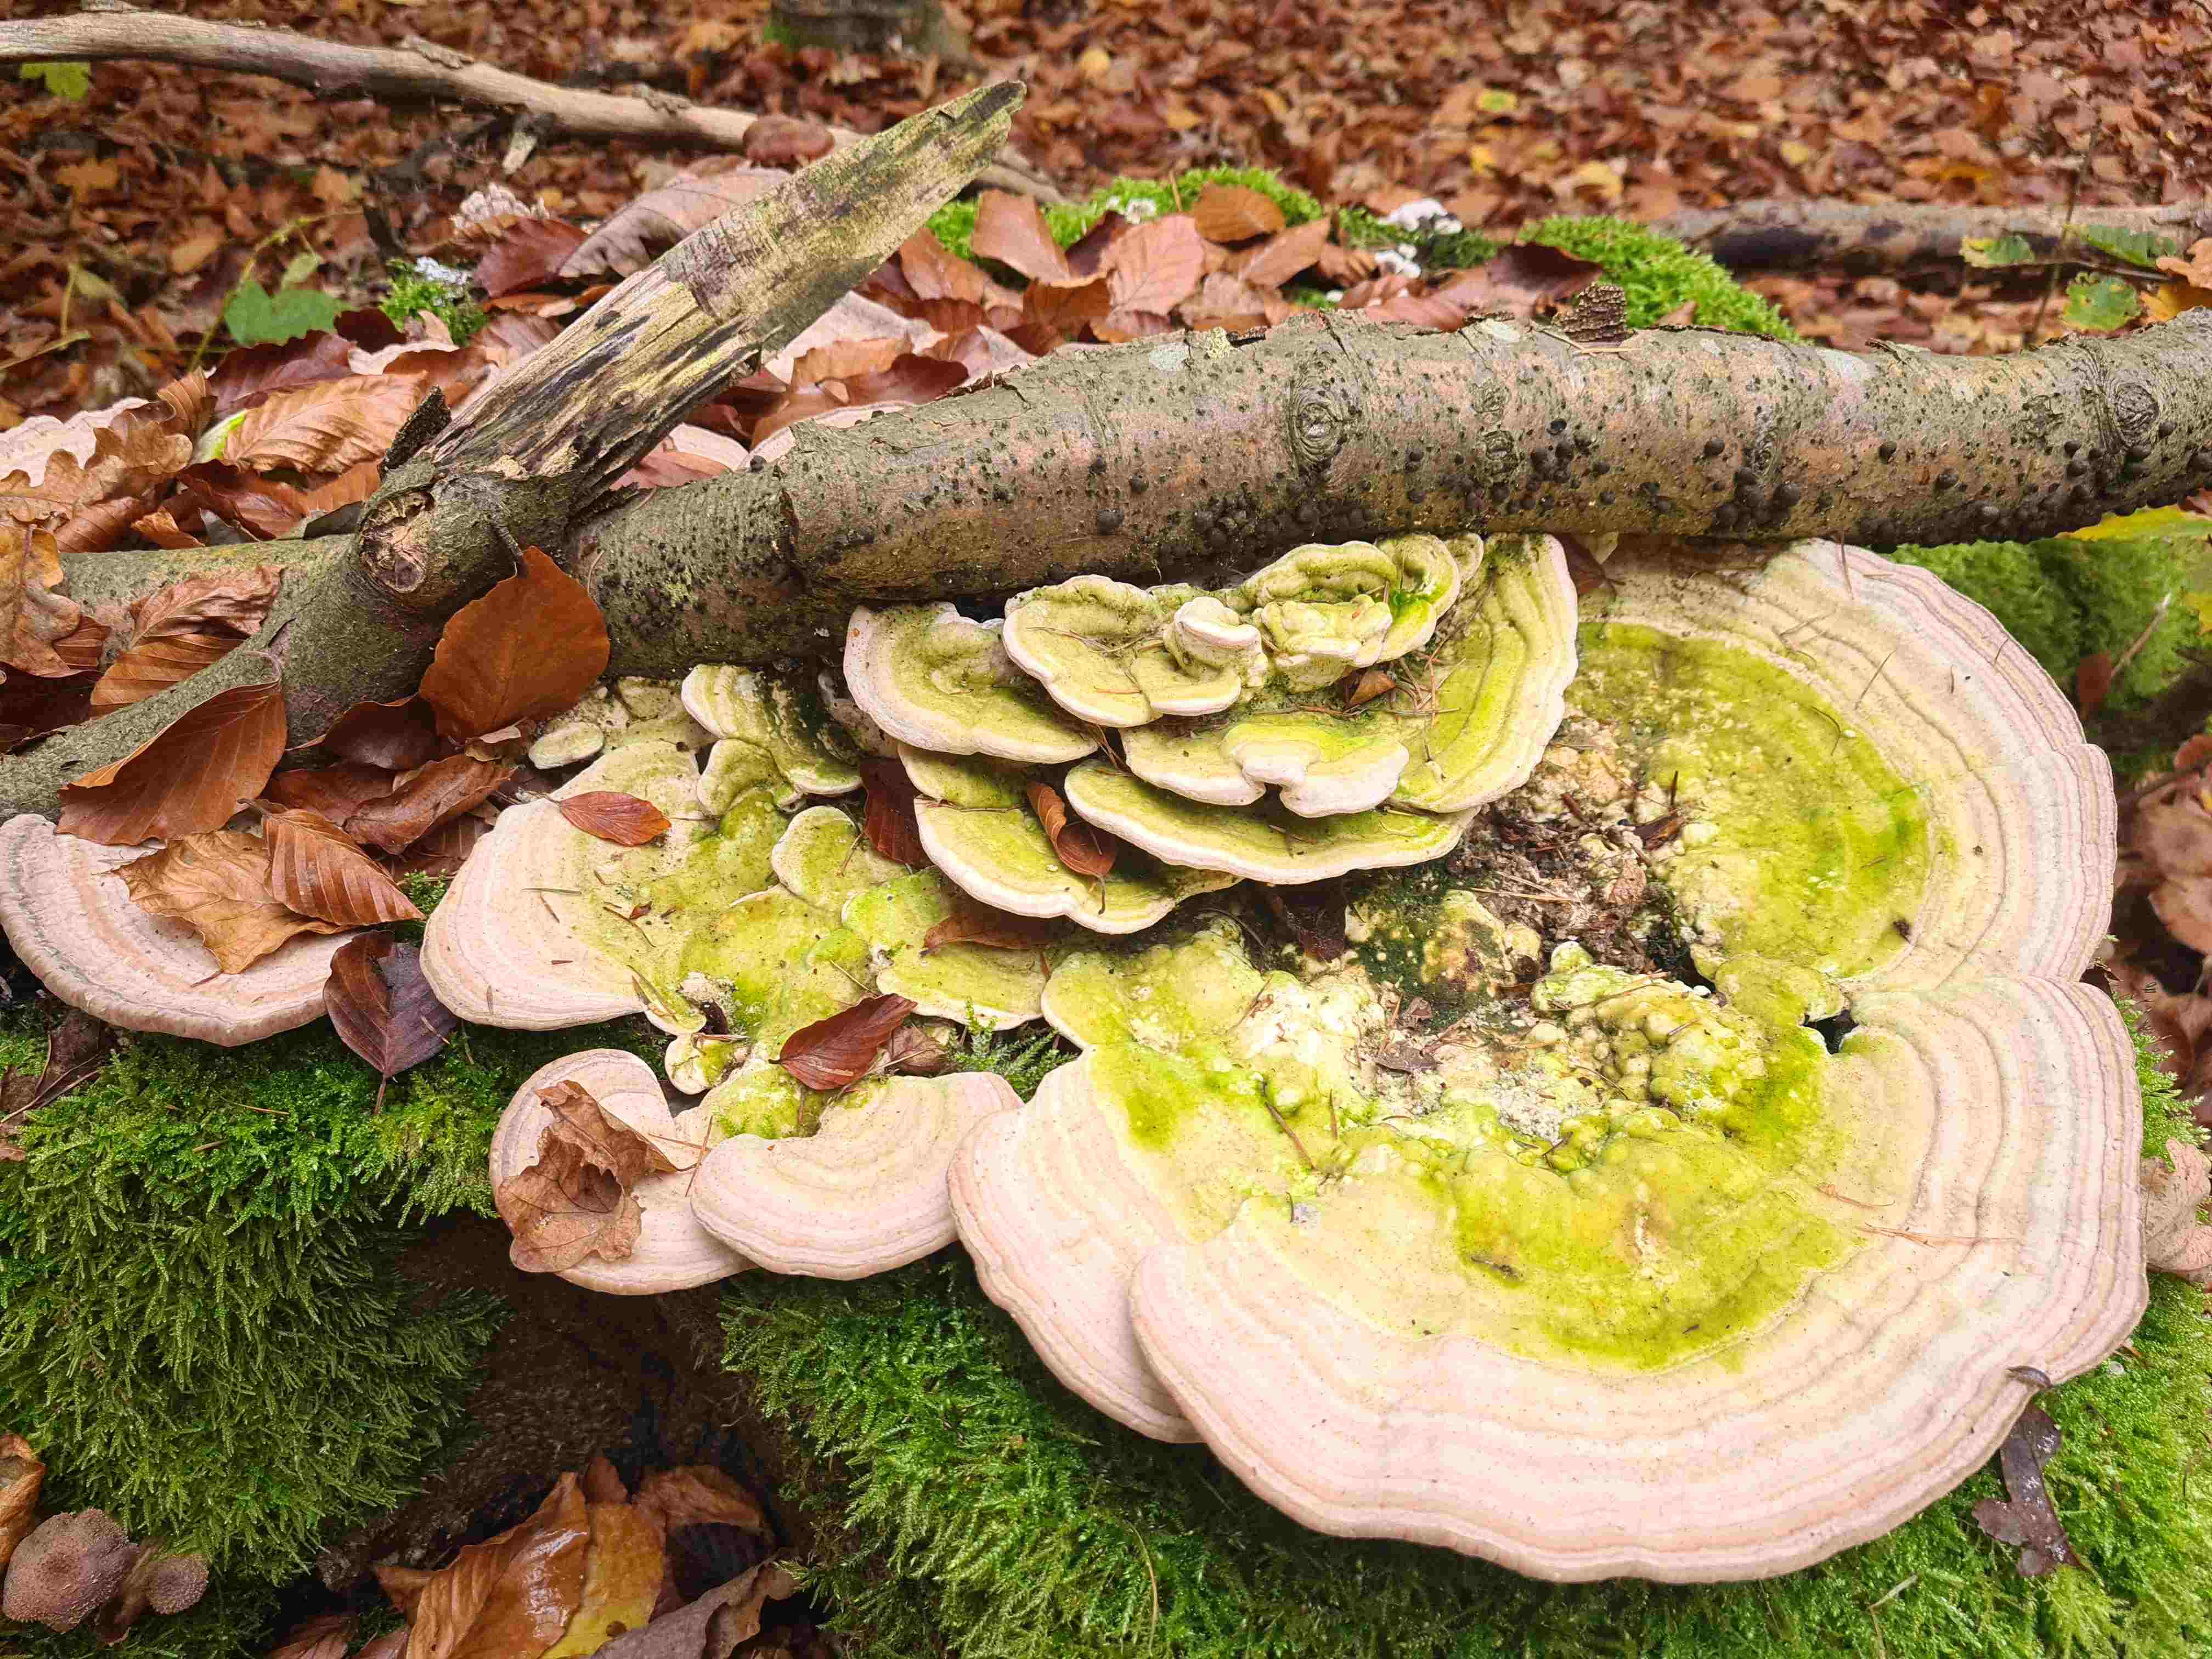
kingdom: Fungi
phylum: Basidiomycota
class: Agaricomycetes
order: Polyporales
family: Polyporaceae
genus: Trametes
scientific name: Trametes gibbosa
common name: puklet læderporesvamp
